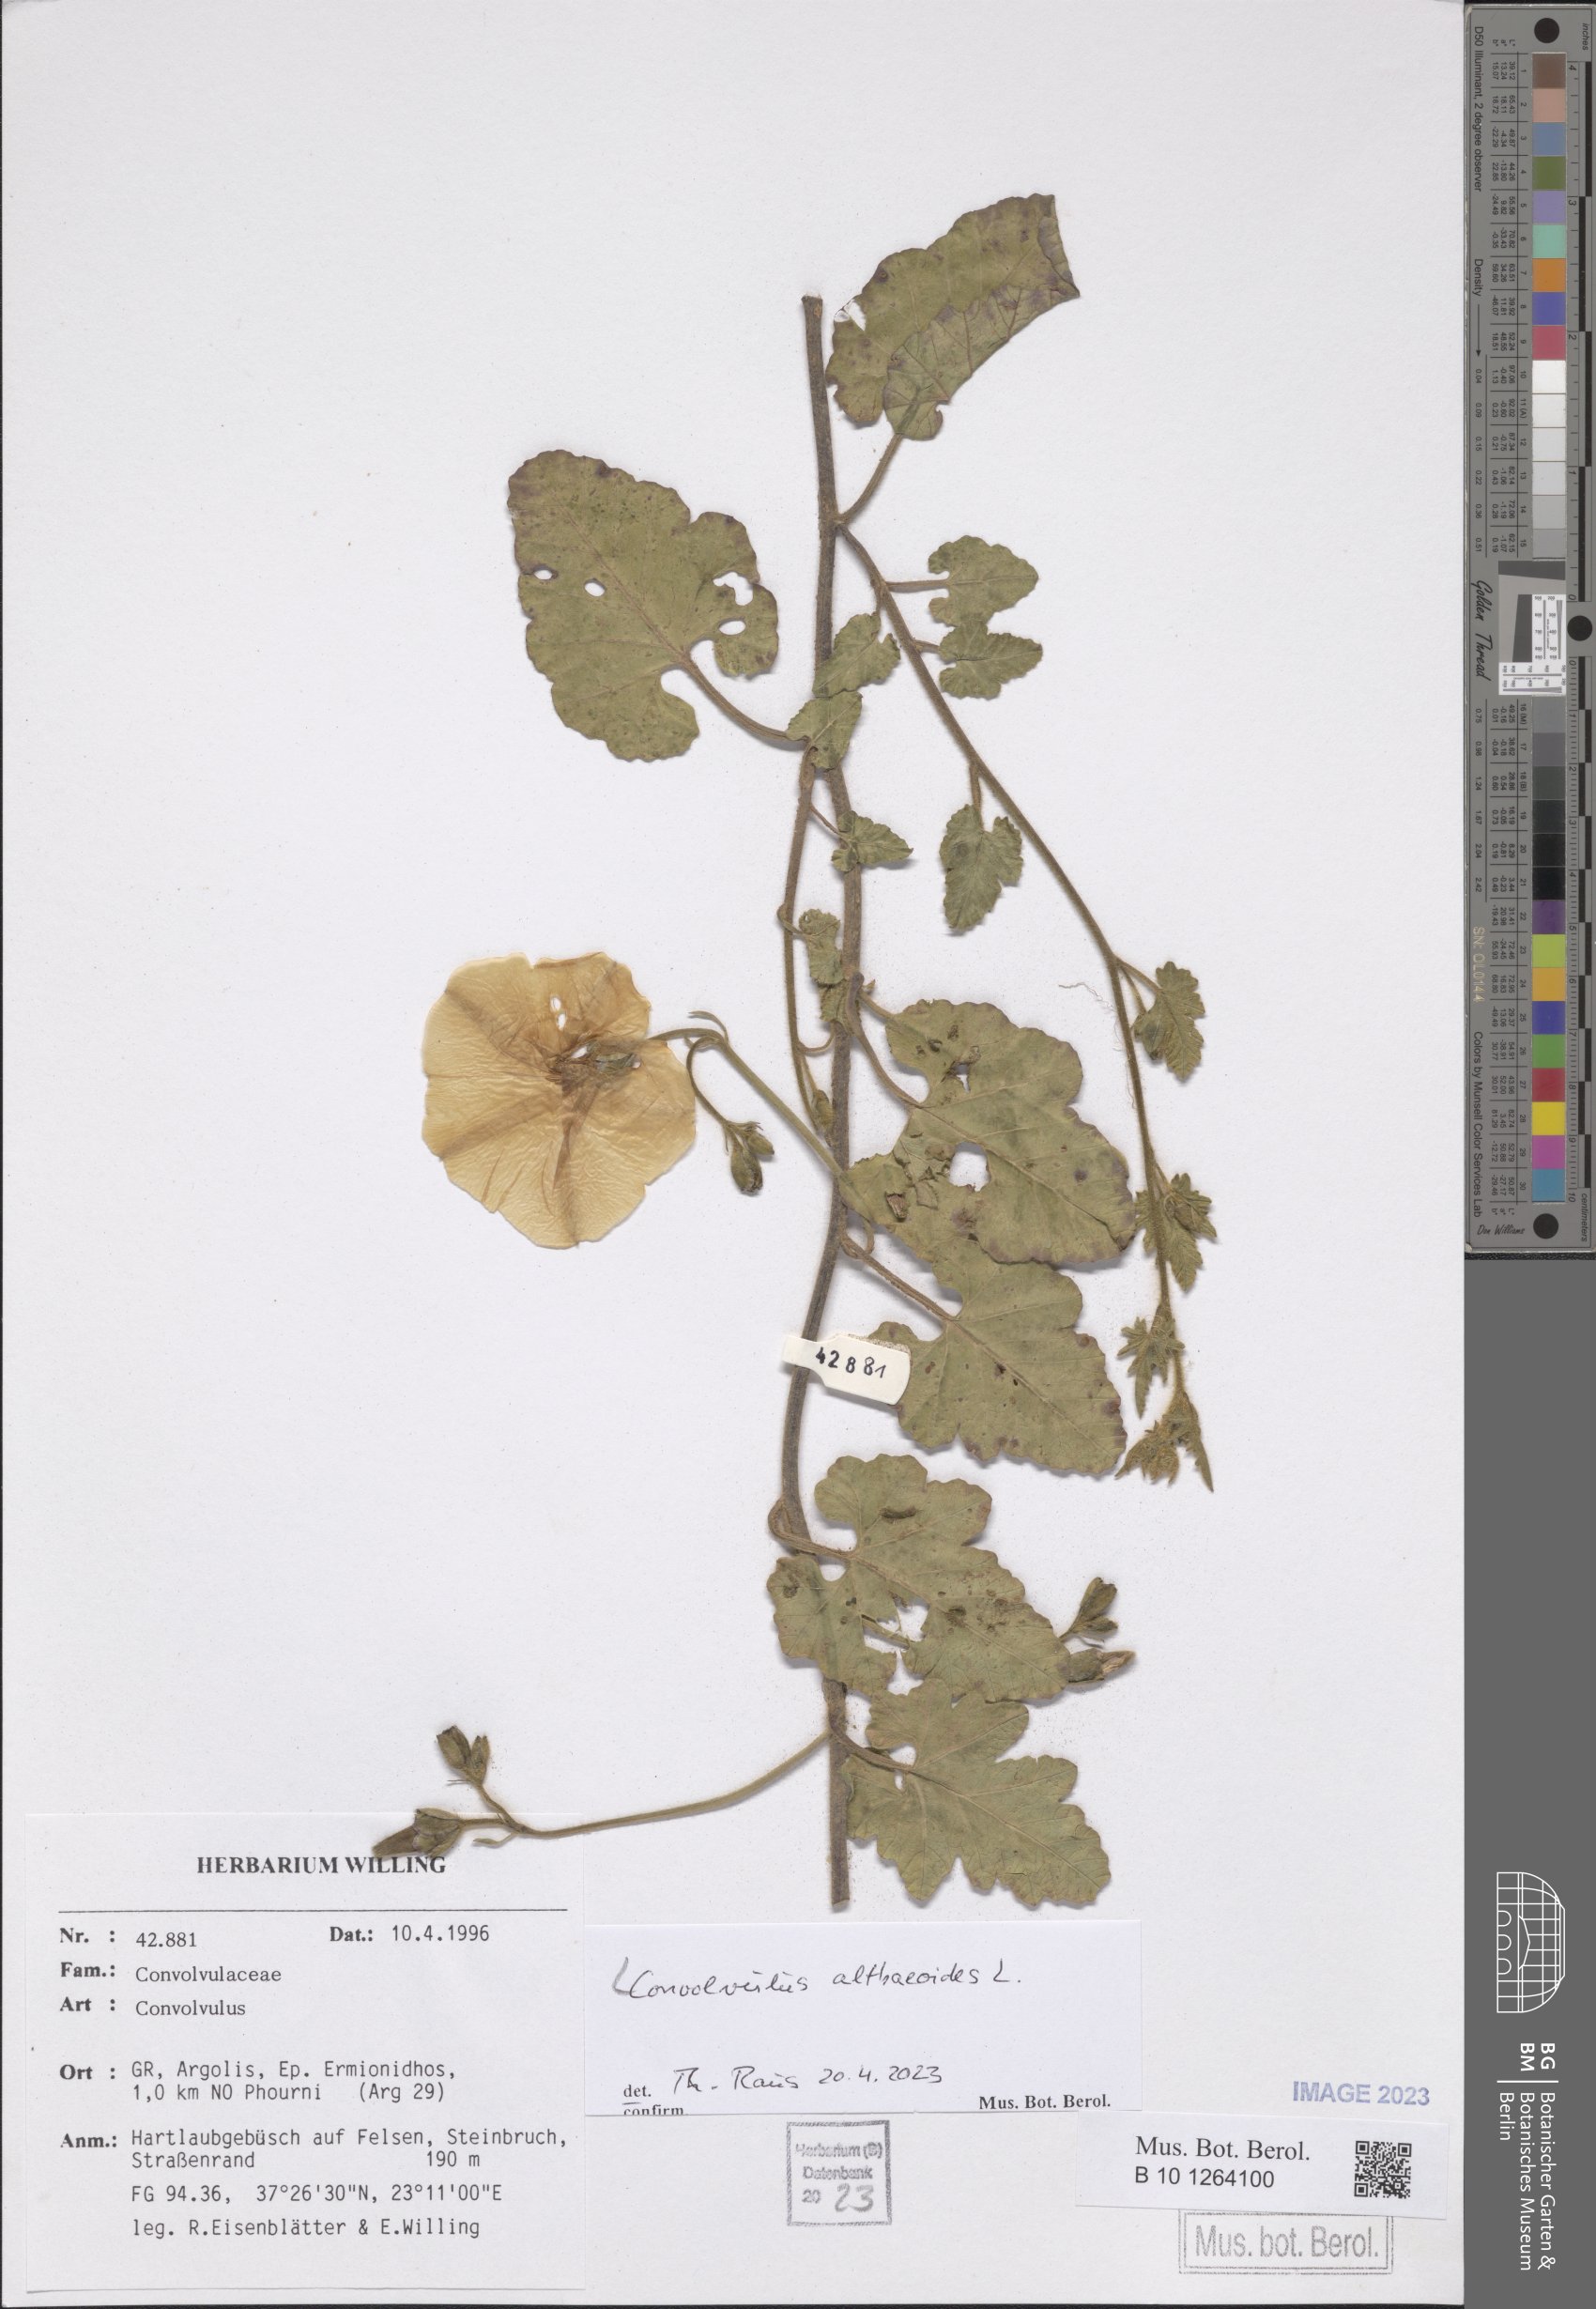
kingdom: Plantae
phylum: Tracheophyta
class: Magnoliopsida
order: Solanales
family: Convolvulaceae
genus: Convolvulus
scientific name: Convolvulus althaeoides
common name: Mallow bindweed
